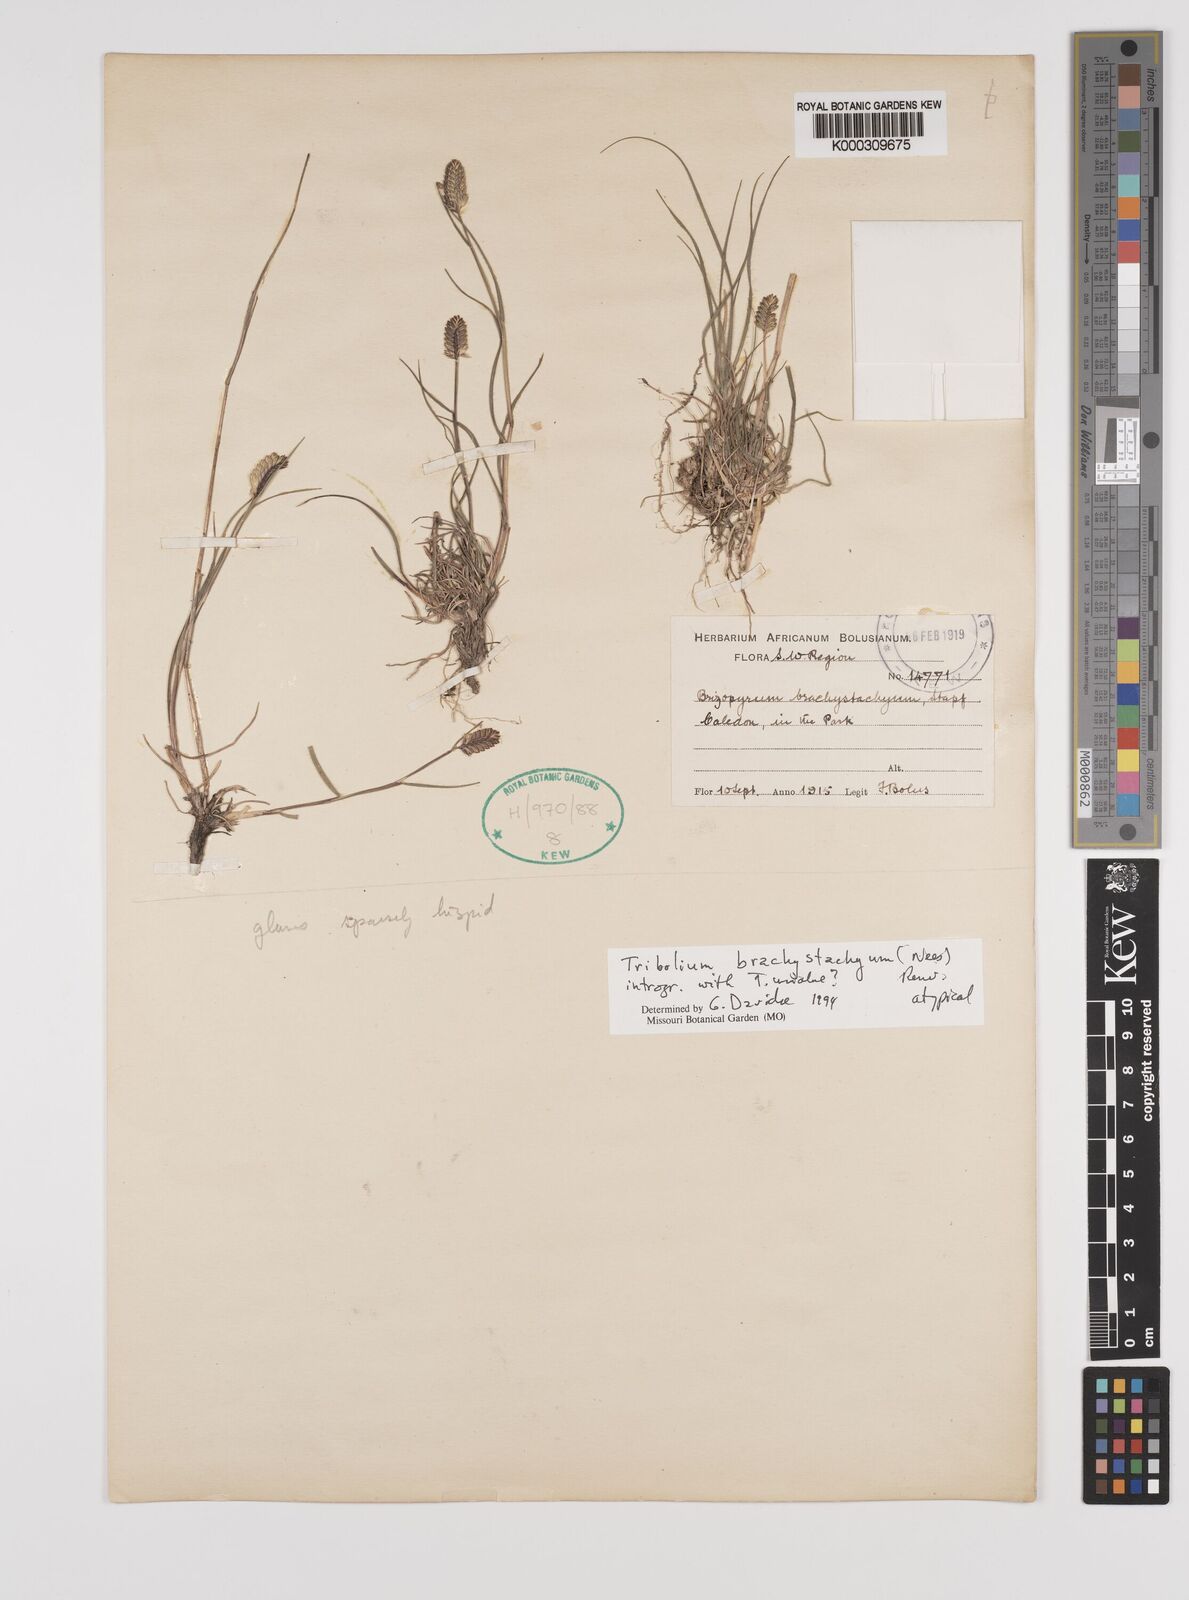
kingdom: Plantae
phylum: Tracheophyta
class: Liliopsida
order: Poales
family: Poaceae
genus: Tribolium
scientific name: Tribolium brachystachyum
